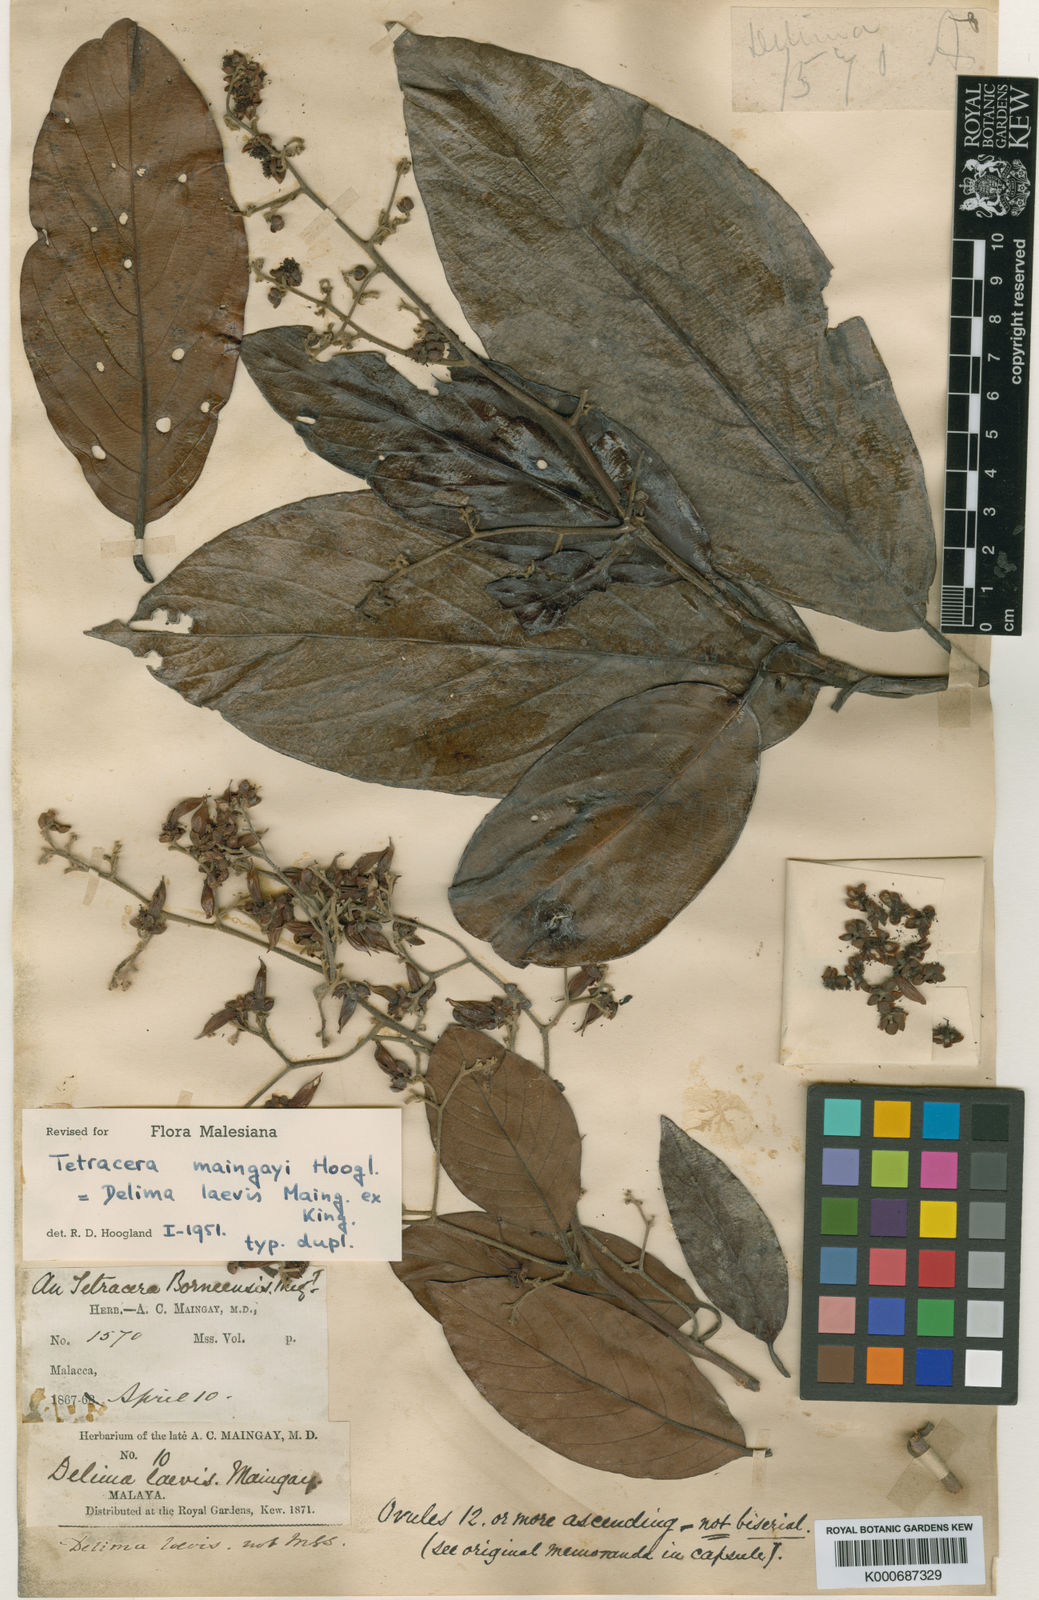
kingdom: Plantae
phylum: Tracheophyta
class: Magnoliopsida
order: Dilleniales
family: Dilleniaceae
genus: Tetracera
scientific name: Tetracera maingayi
